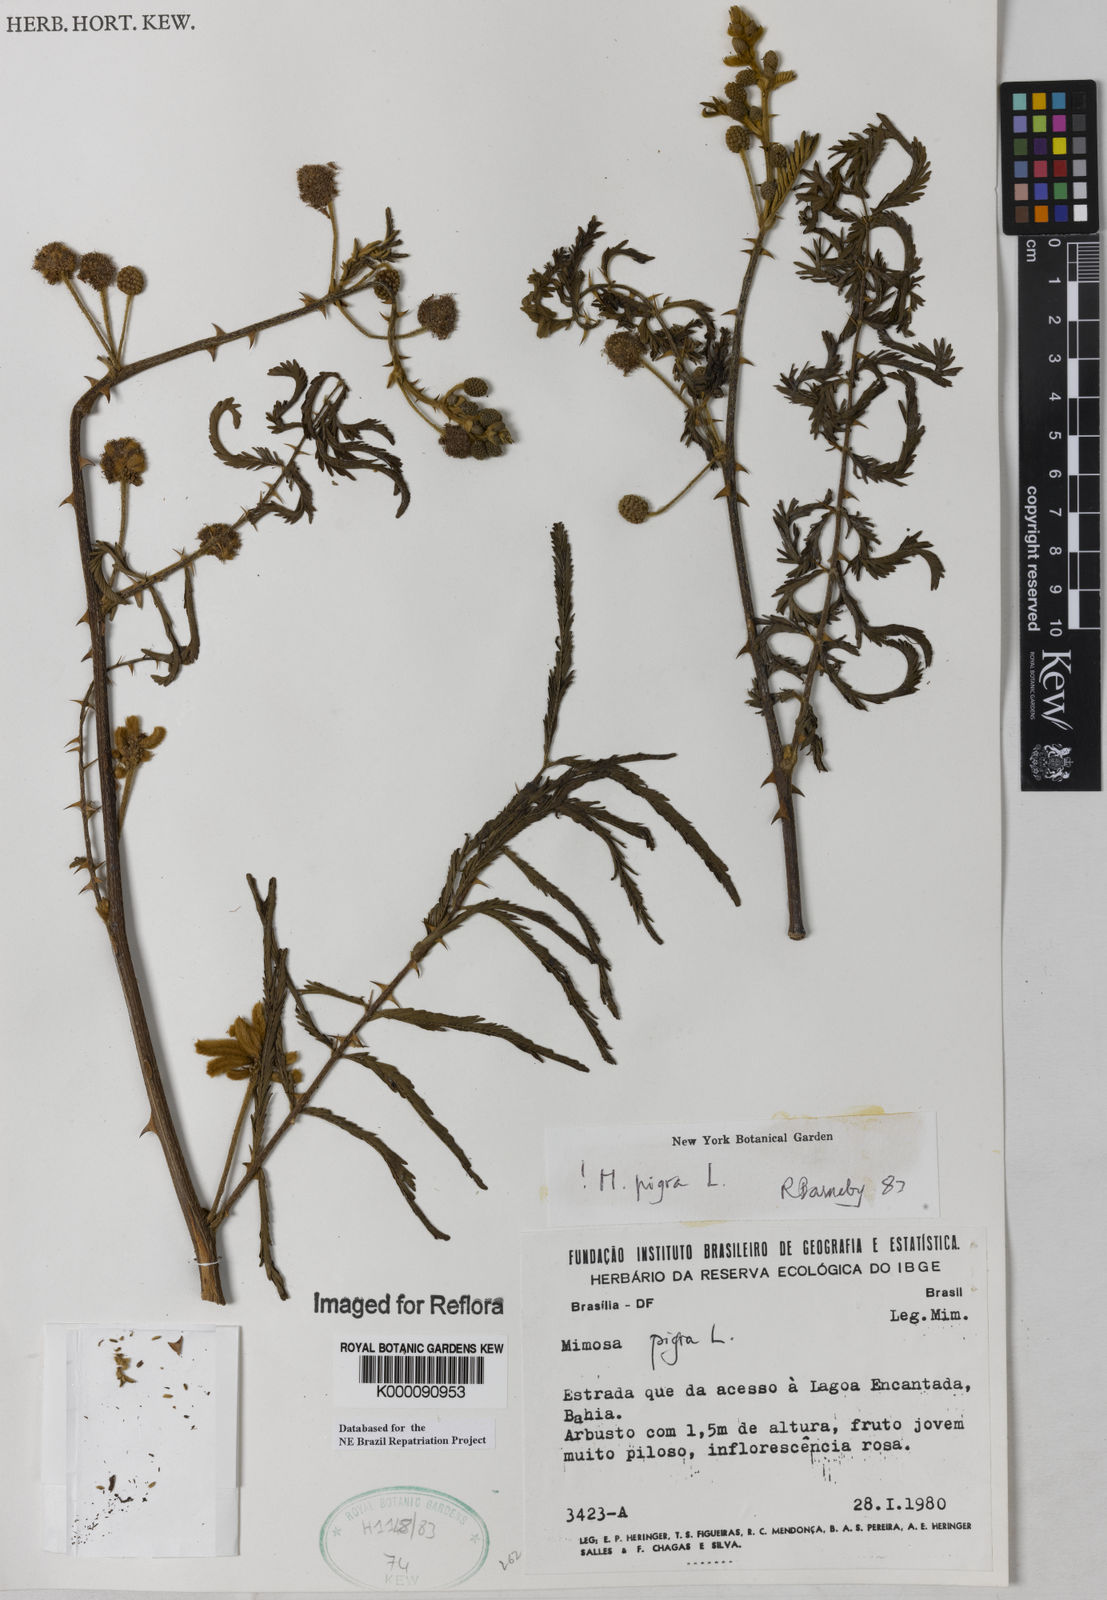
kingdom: Plantae
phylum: Tracheophyta
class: Magnoliopsida
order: Fabales
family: Fabaceae
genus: Mimosa
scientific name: Mimosa pigra
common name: Black mimosa
